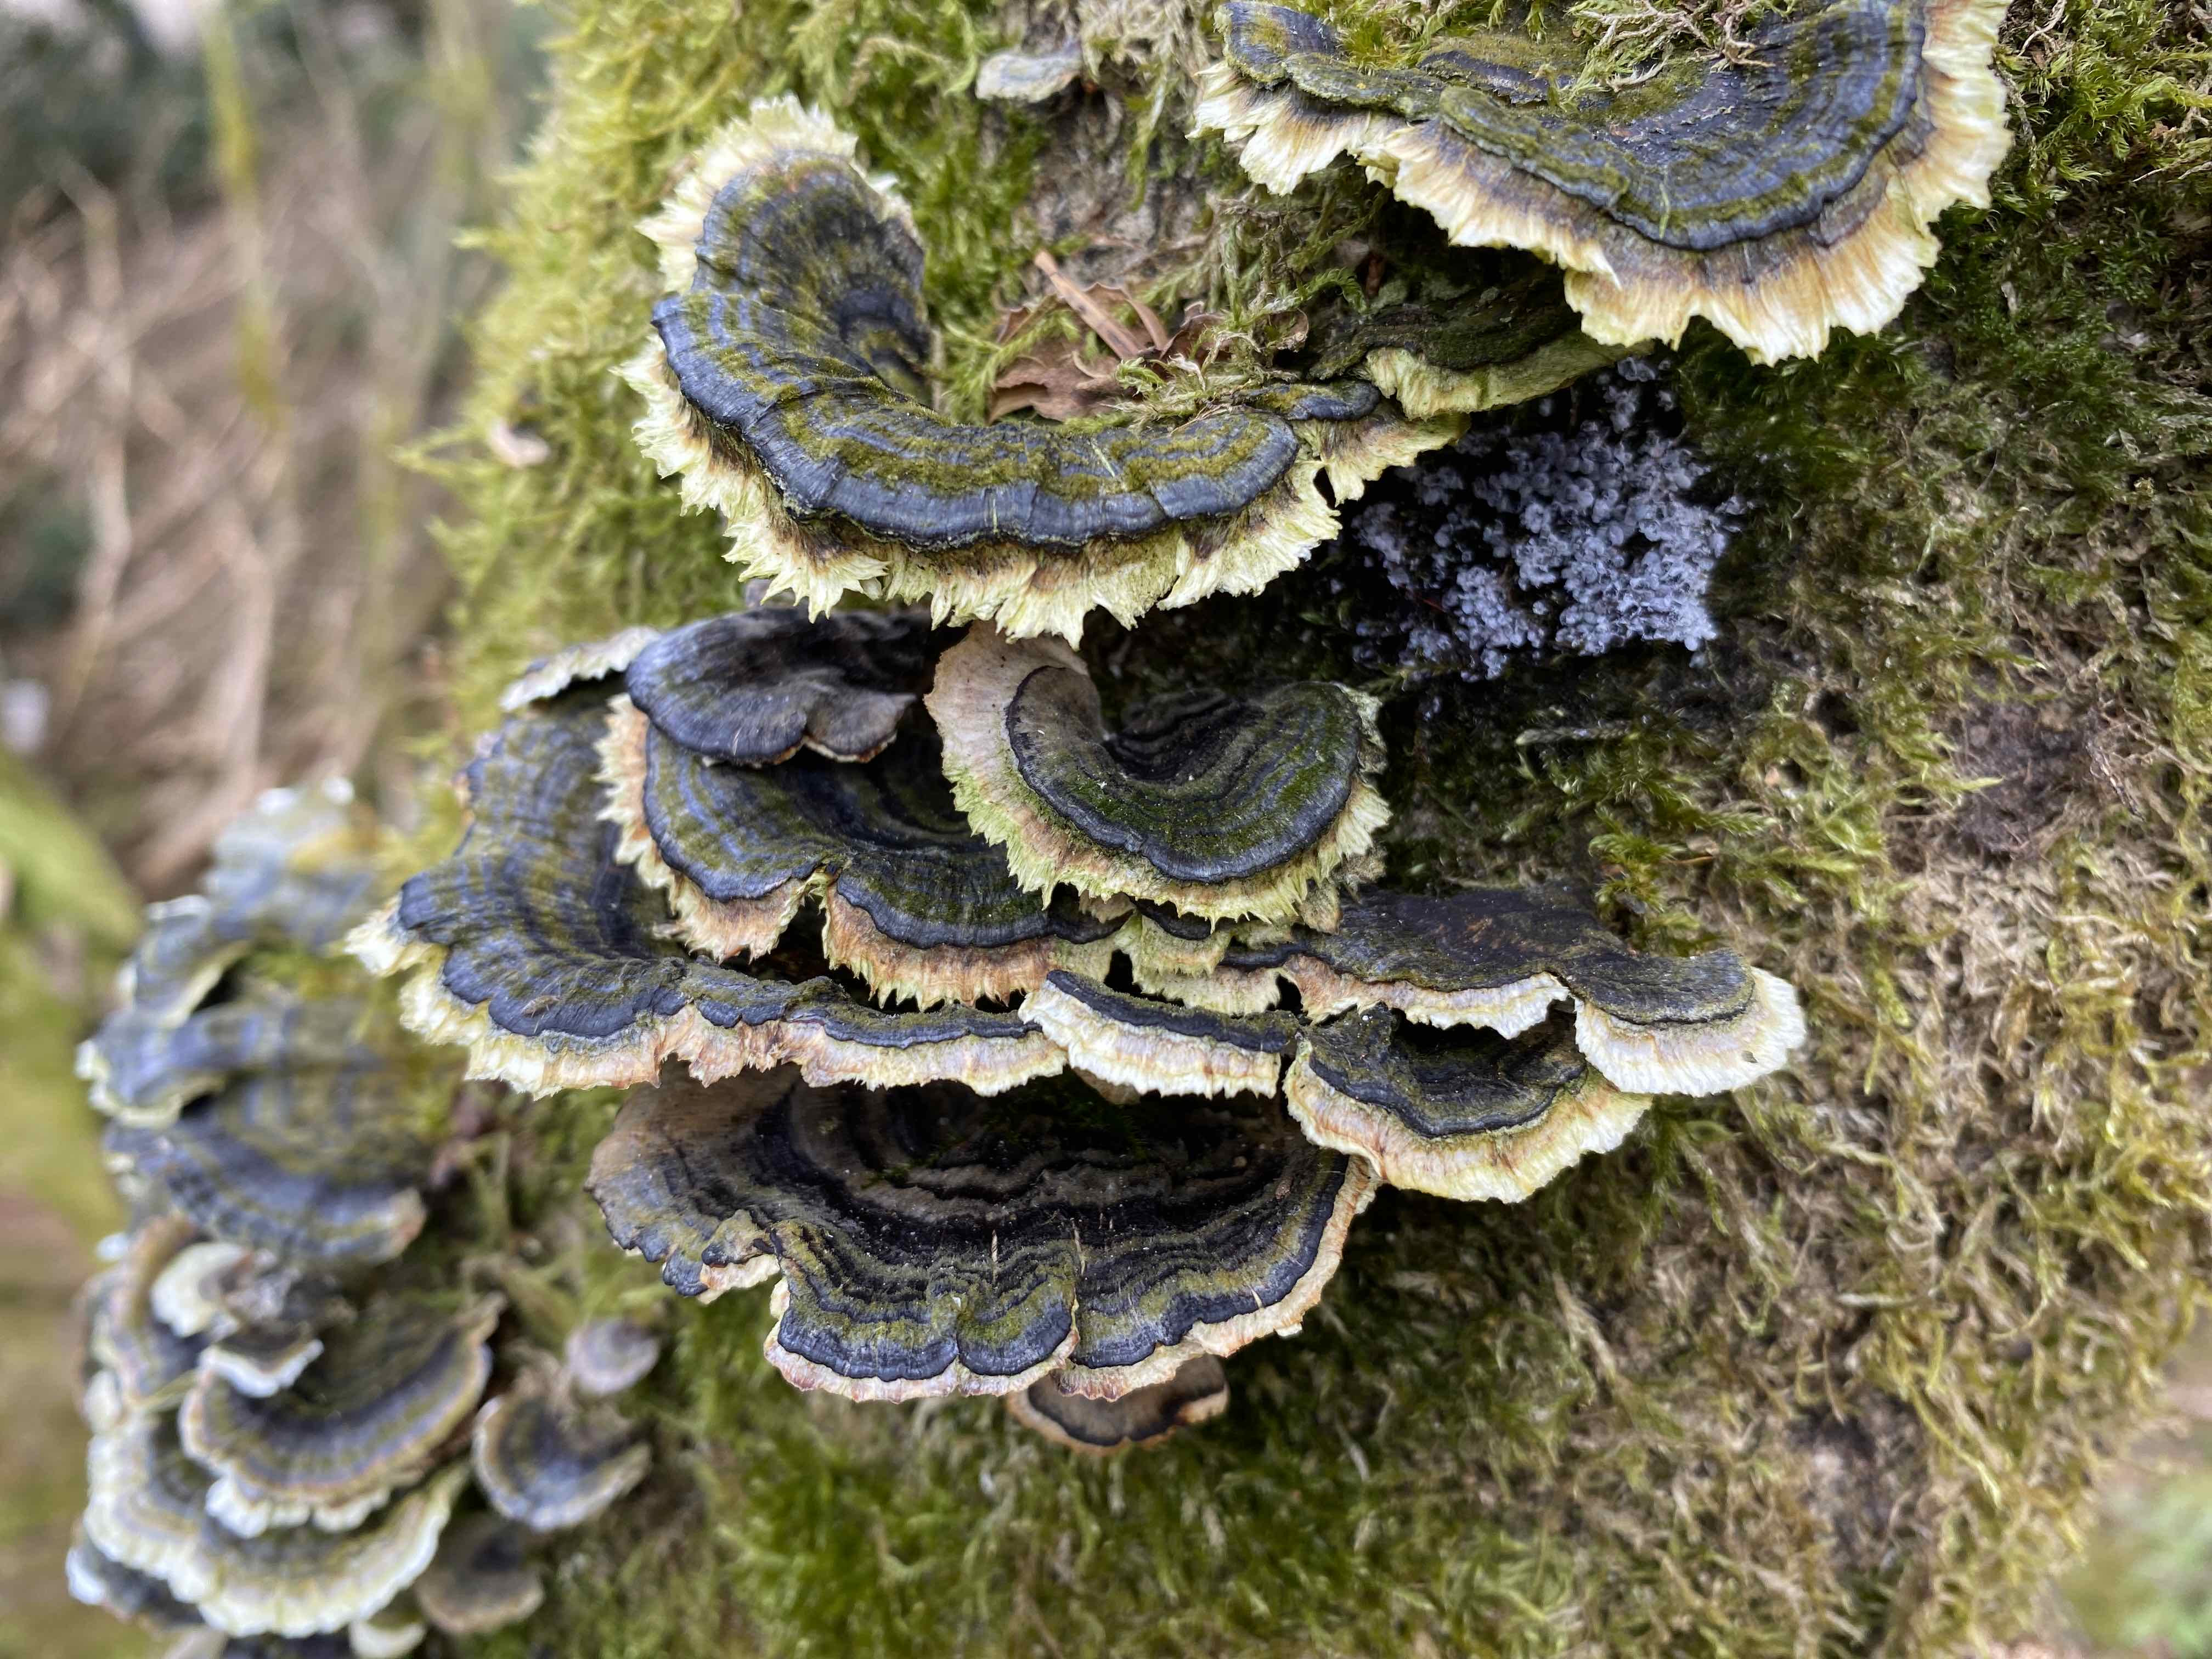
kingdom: Fungi
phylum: Basidiomycota
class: Agaricomycetes
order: Polyporales
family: Polyporaceae
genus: Trametes
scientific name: Trametes versicolor
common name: broget læderporesvamp
